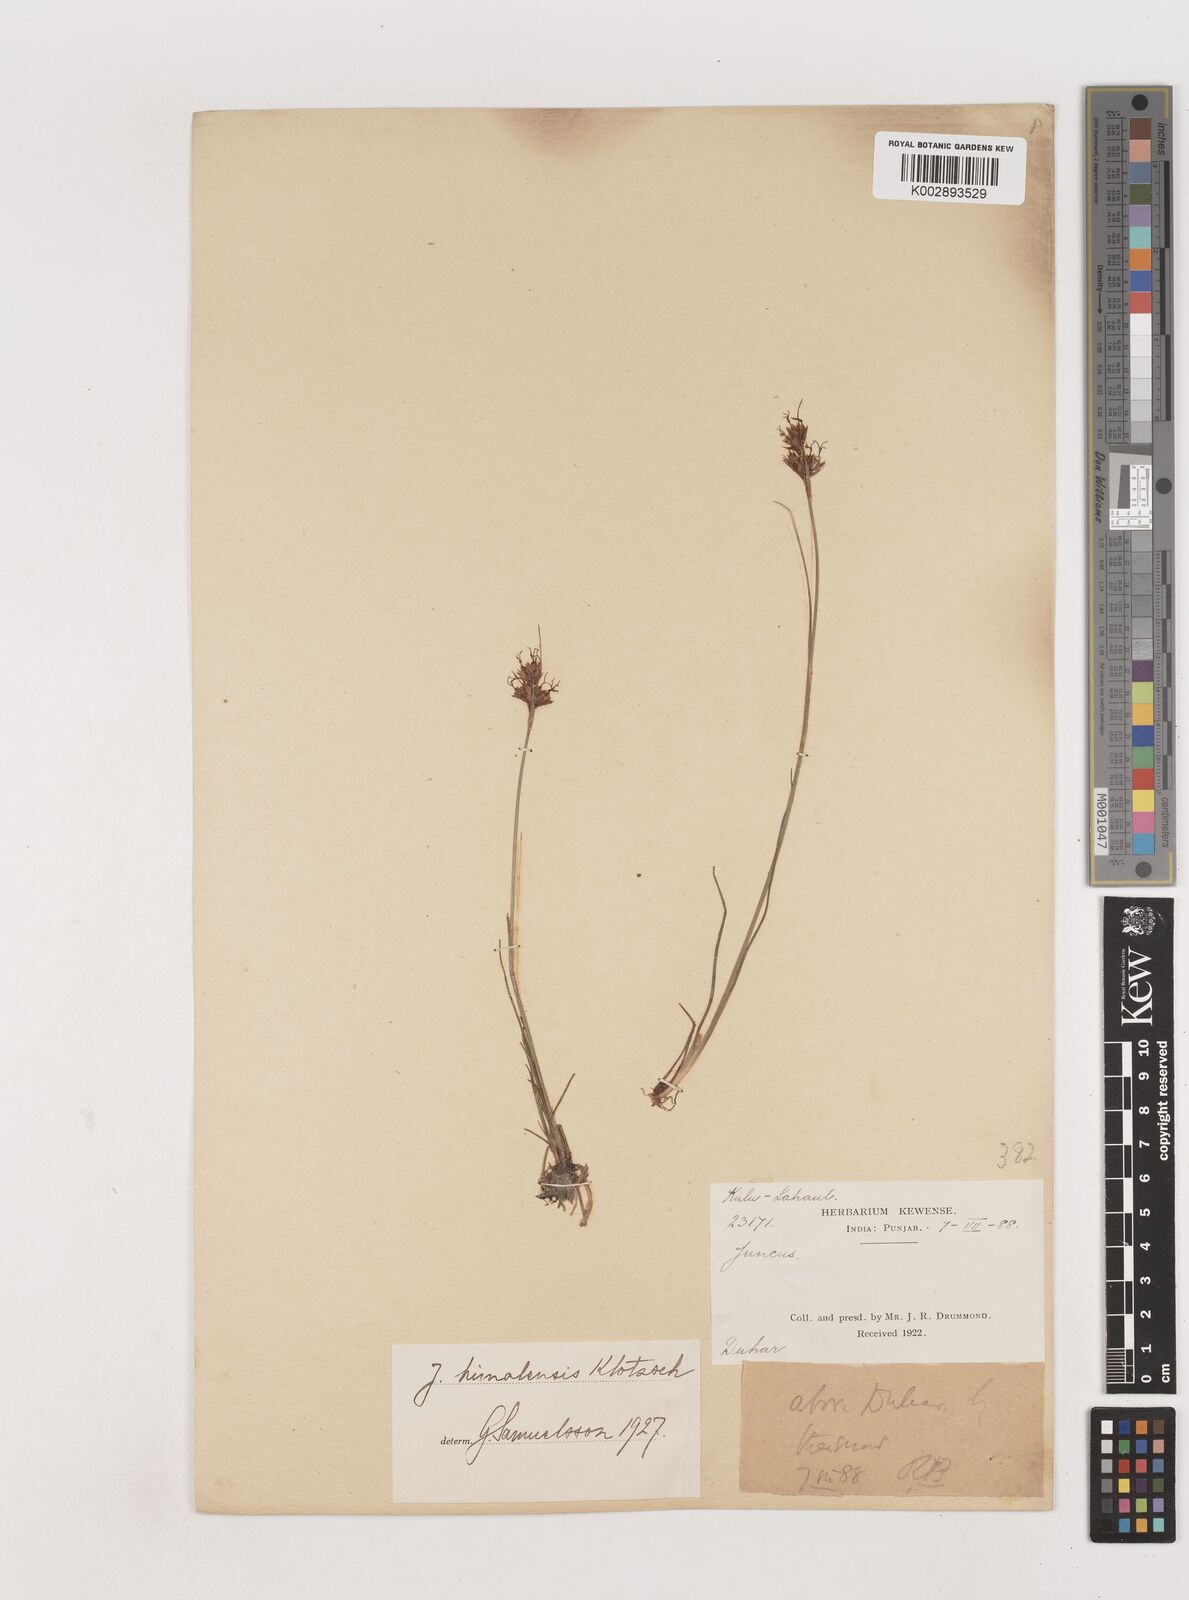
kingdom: Plantae
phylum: Tracheophyta
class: Liliopsida
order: Poales
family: Juncaceae
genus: Juncus
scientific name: Juncus himalensis
